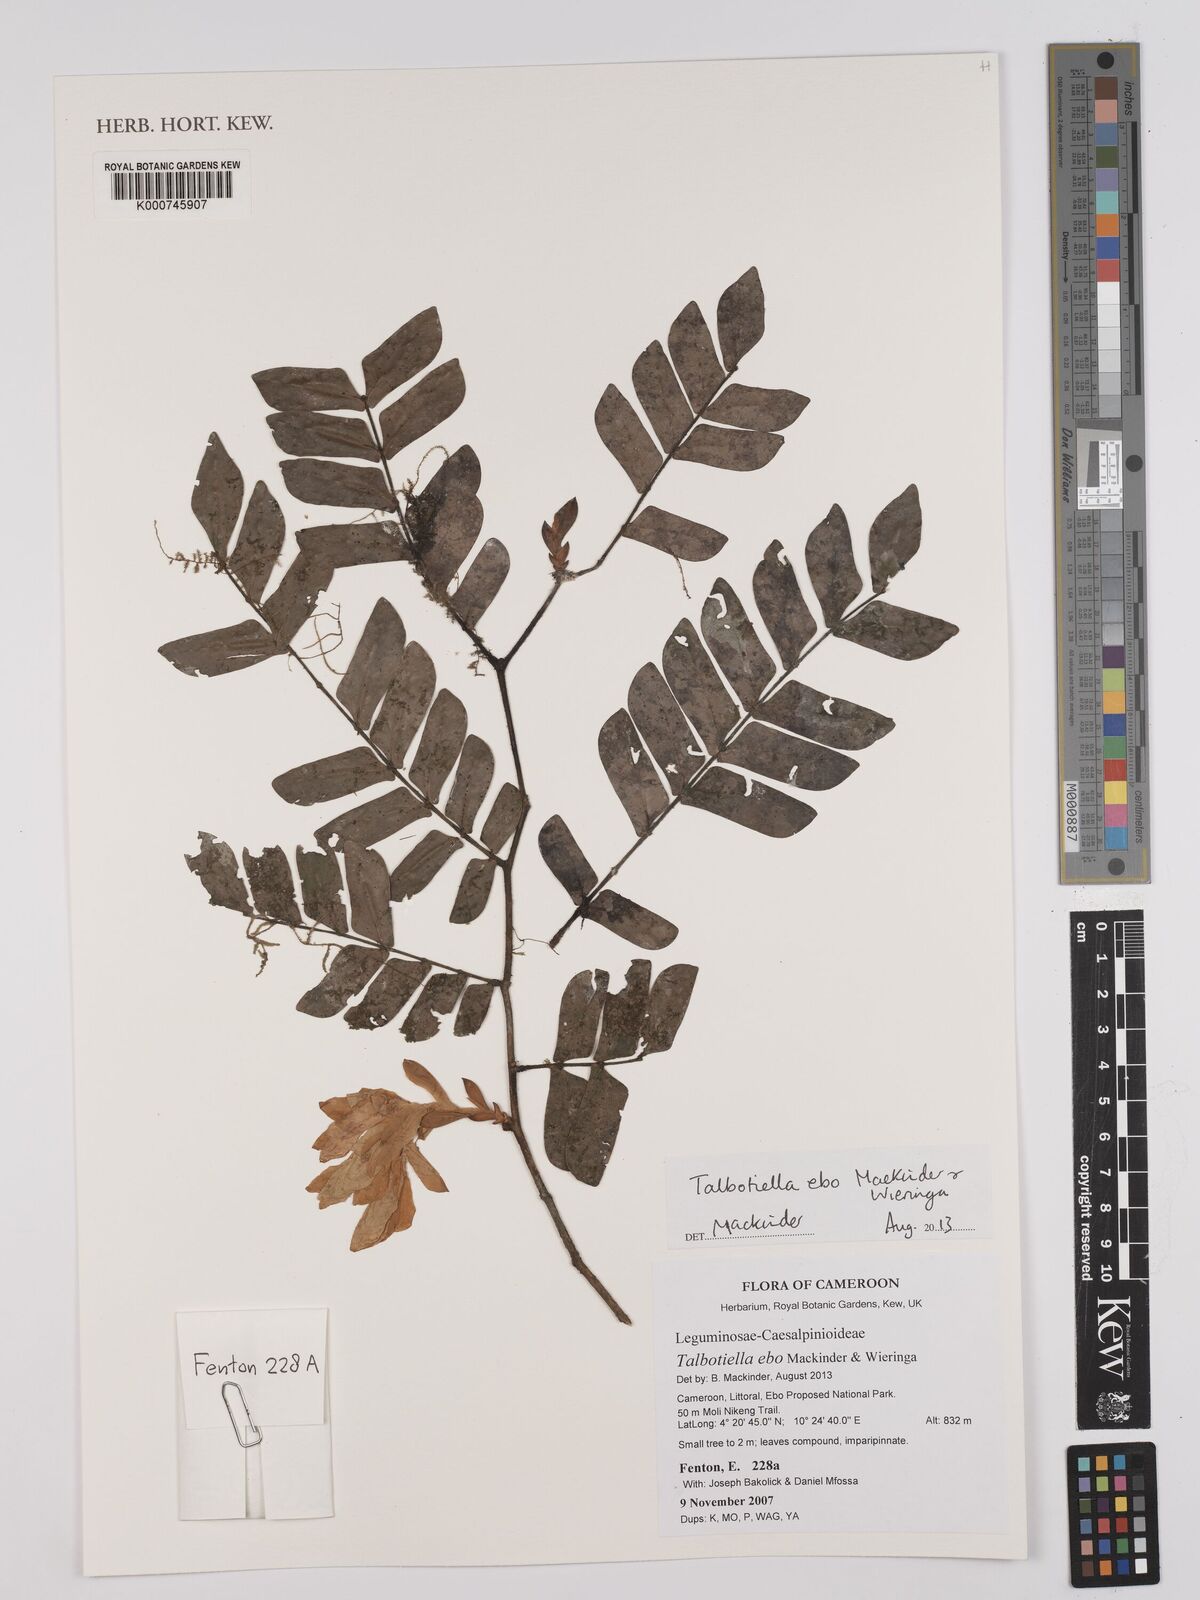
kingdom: Plantae
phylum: Tracheophyta
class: Magnoliopsida
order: Fabales
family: Fabaceae
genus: Talbotiella
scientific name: Talbotiella ebo
